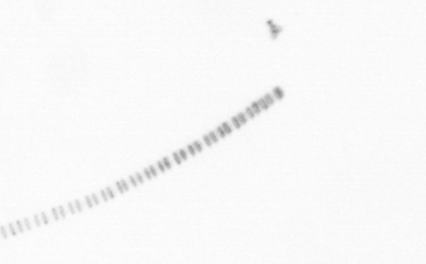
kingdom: Chromista
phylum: Ochrophyta
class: Bacillariophyceae
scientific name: Bacillariophyceae
